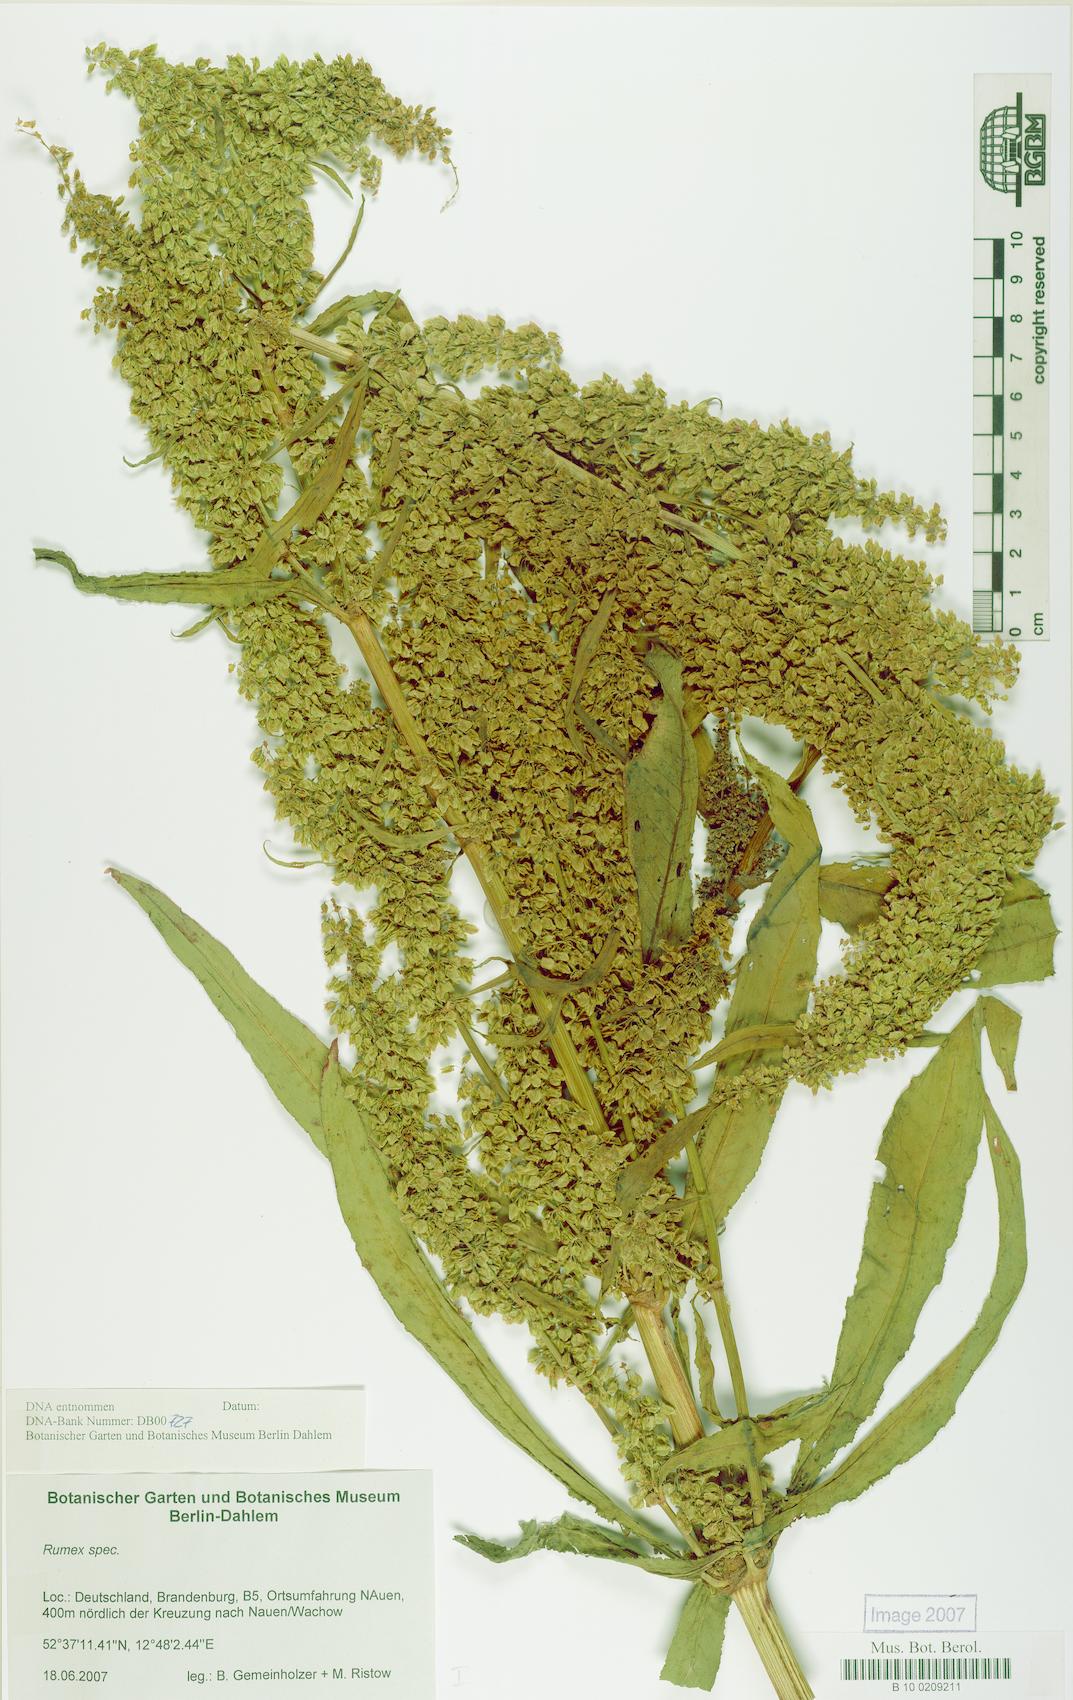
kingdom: Plantae
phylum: Tracheophyta
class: Magnoliopsida
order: Caryophyllales
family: Polygonaceae
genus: Rumex
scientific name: Rumex
